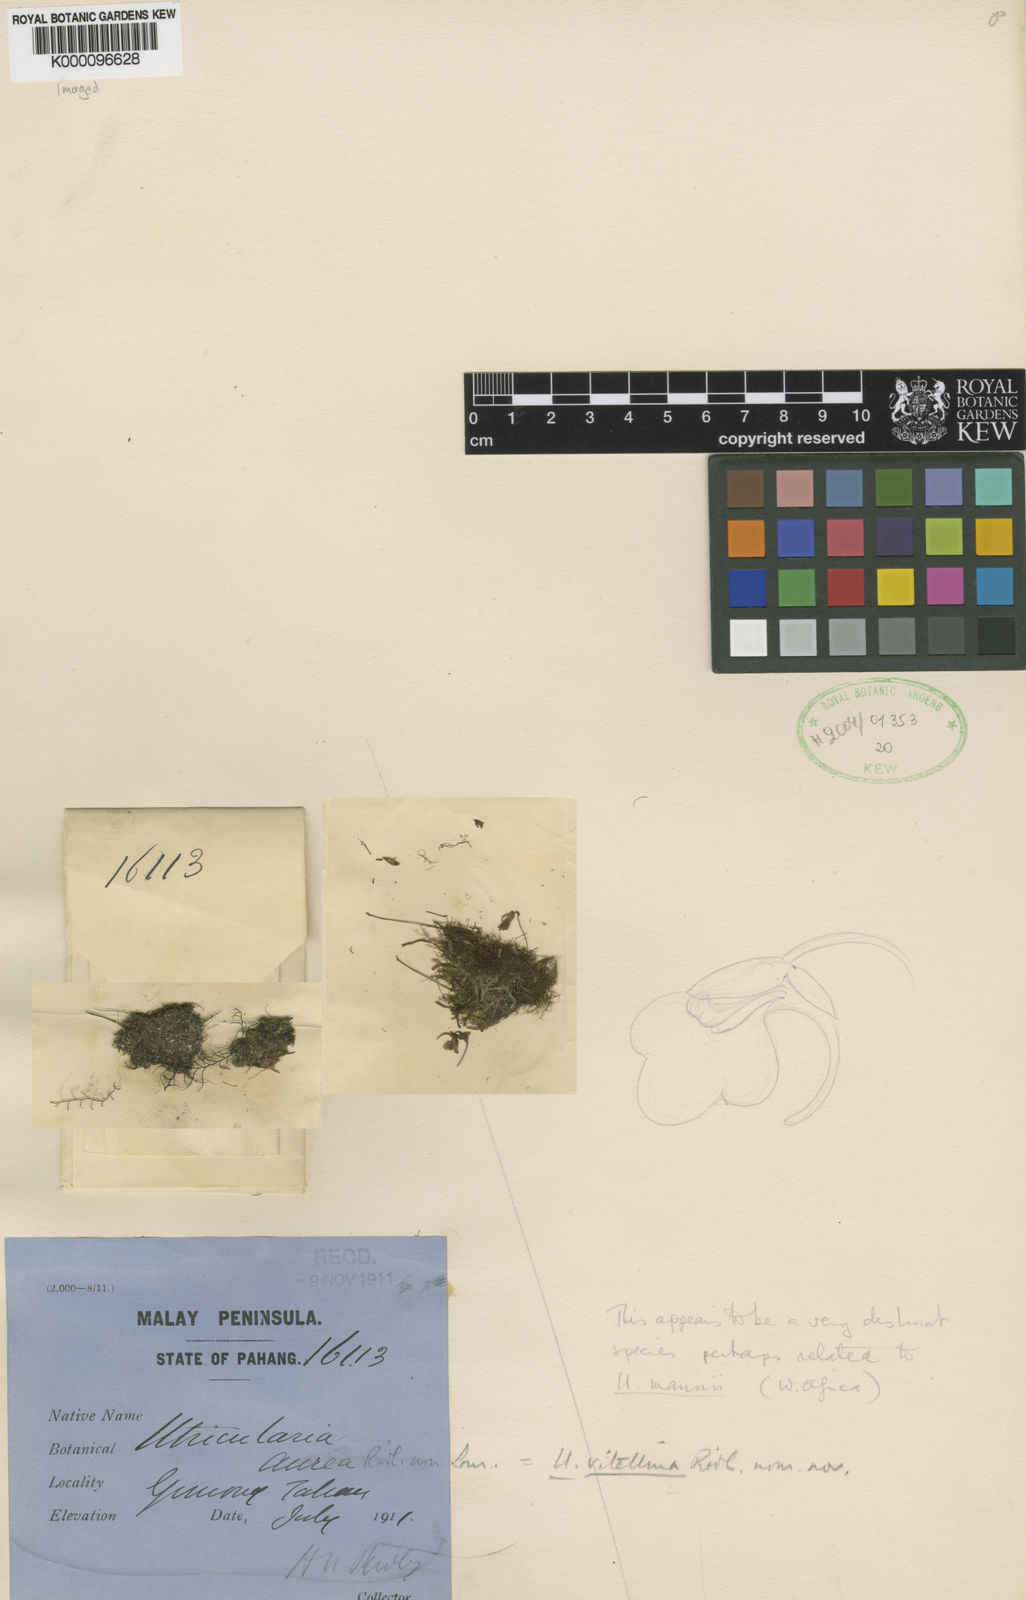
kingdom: Plantae
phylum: Tracheophyta
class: Magnoliopsida
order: Lamiales
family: Lentibulariaceae
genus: Utricularia
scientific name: Utricularia vitellina
